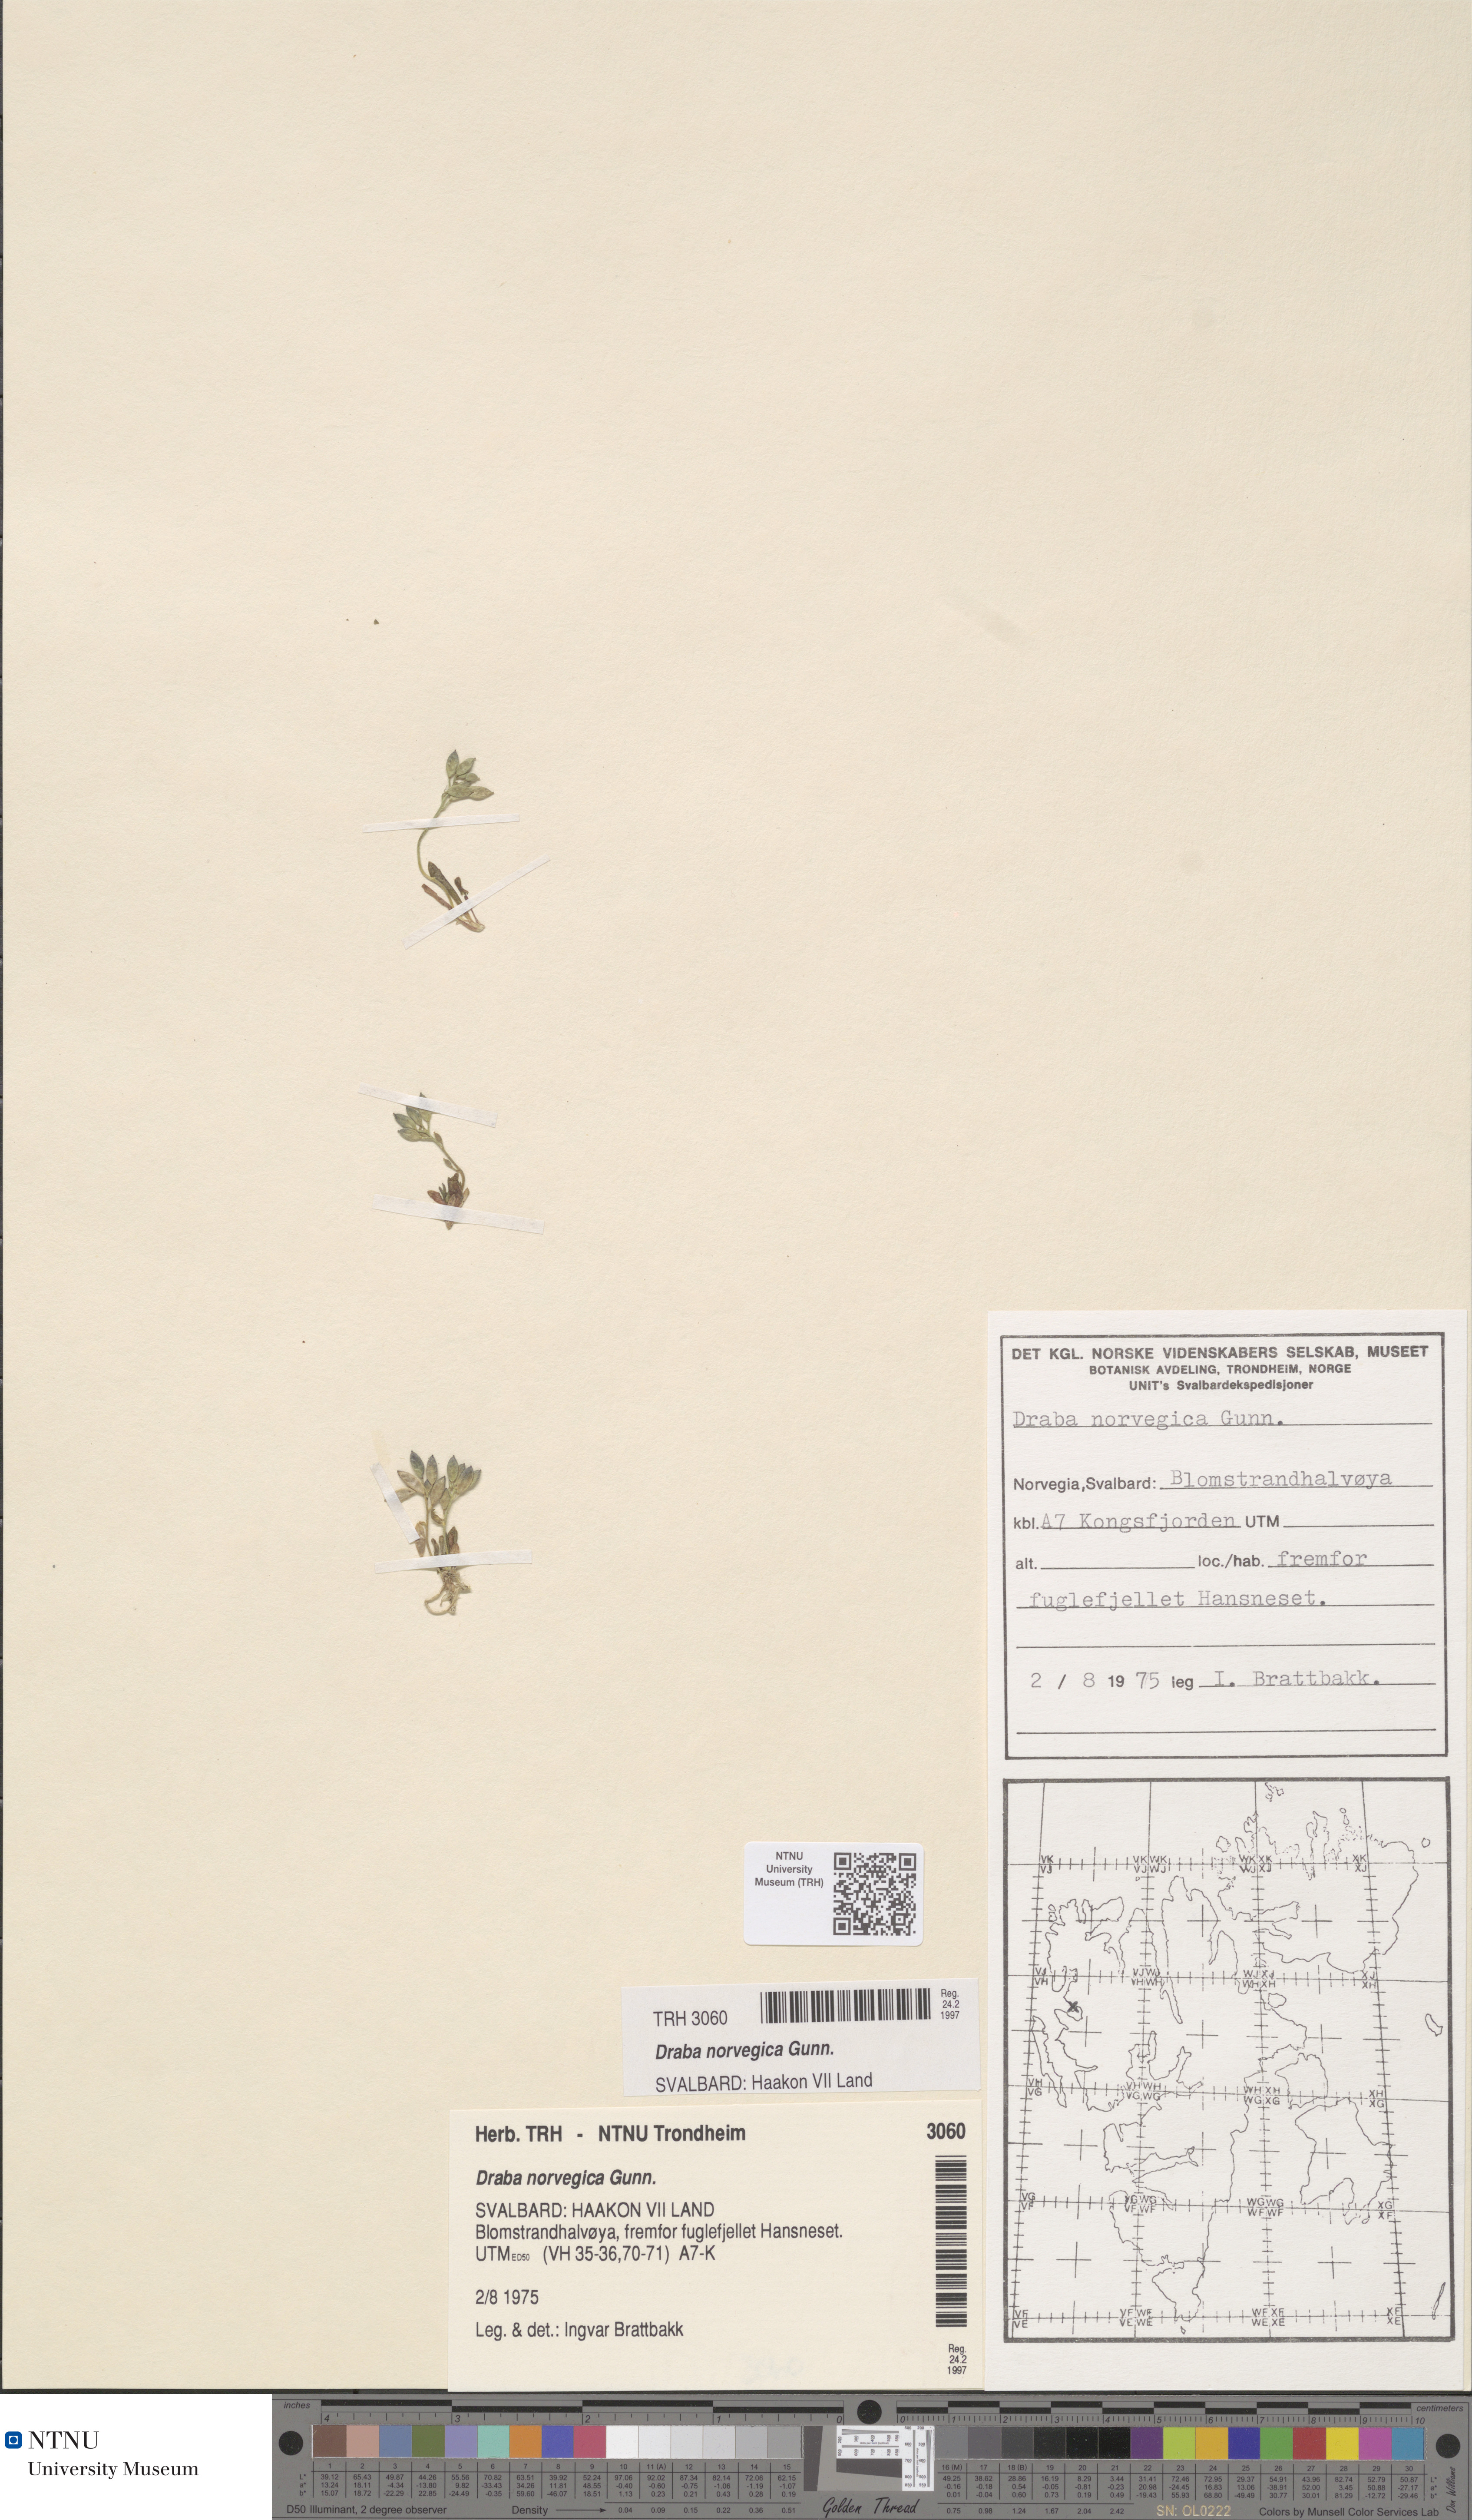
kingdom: Plantae
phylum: Tracheophyta
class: Magnoliopsida
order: Brassicales
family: Brassicaceae
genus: Draba
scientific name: Draba norvegica
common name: Rock whitlowgrass
